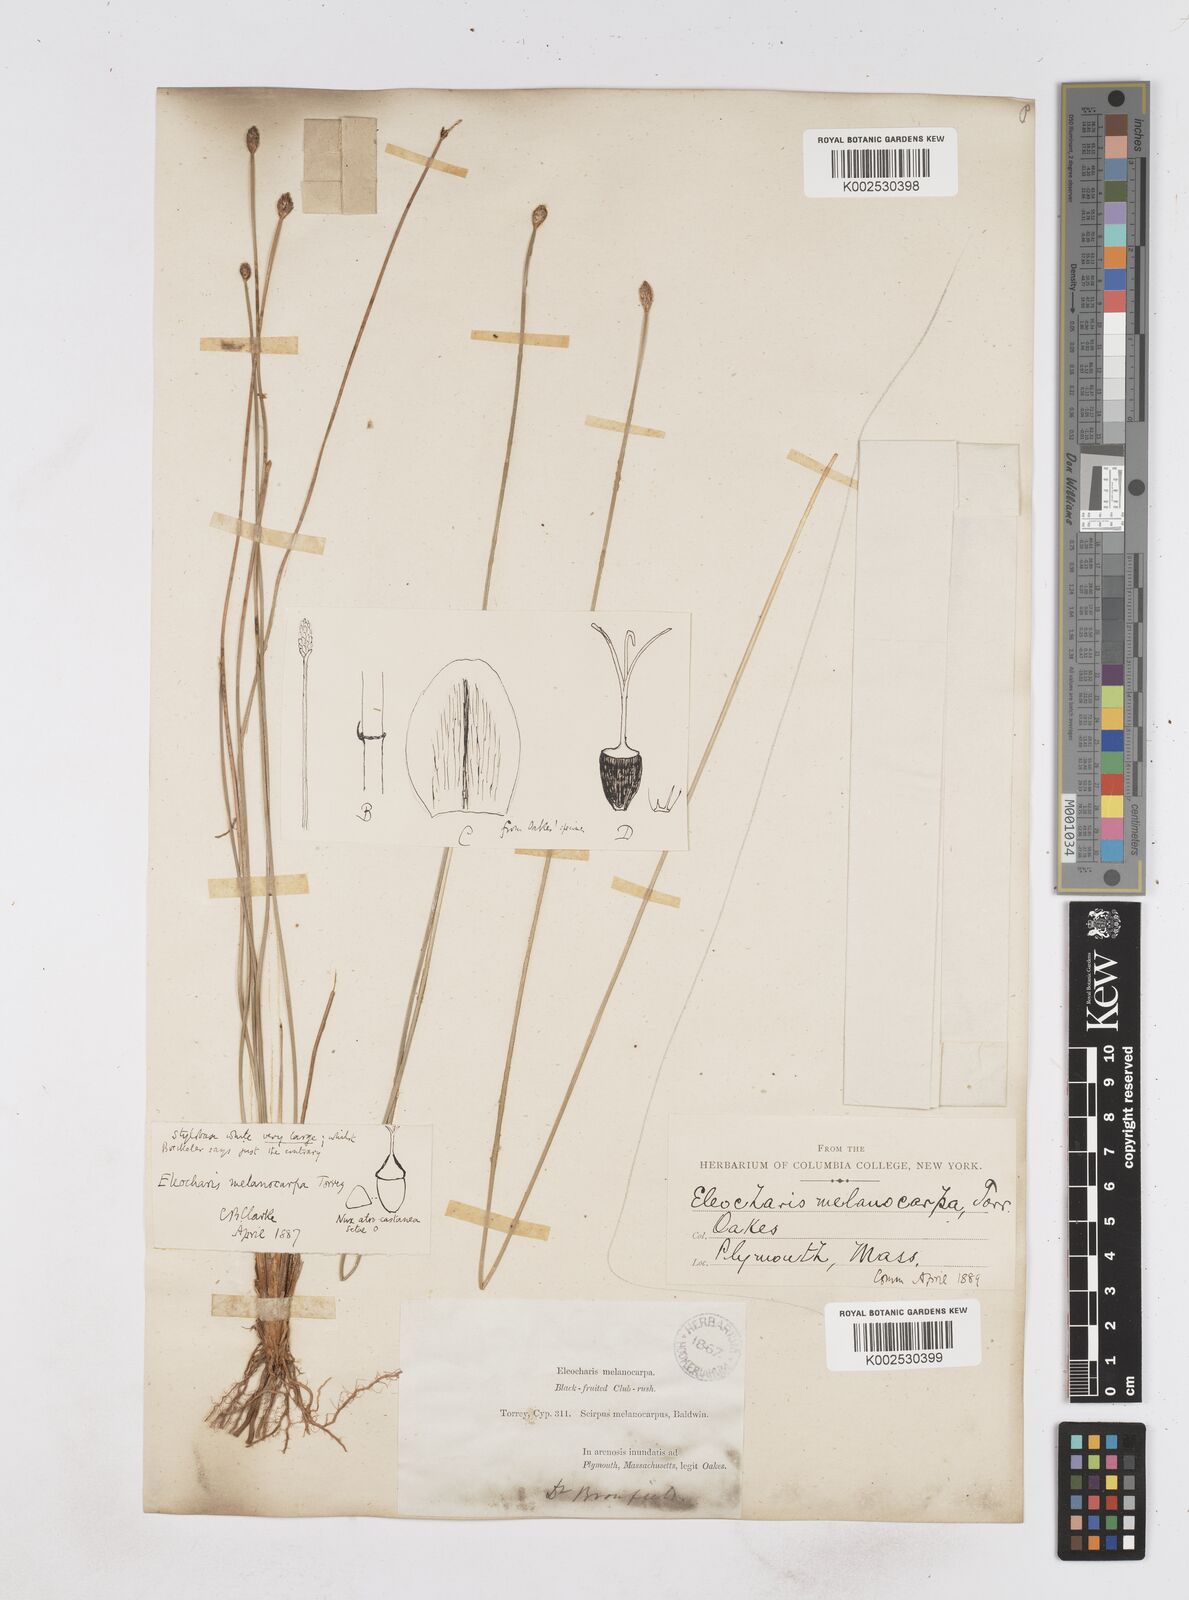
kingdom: Plantae
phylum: Tracheophyta
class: Liliopsida
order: Poales
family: Cyperaceae
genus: Eleocharis
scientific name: Eleocharis melanocarpa
